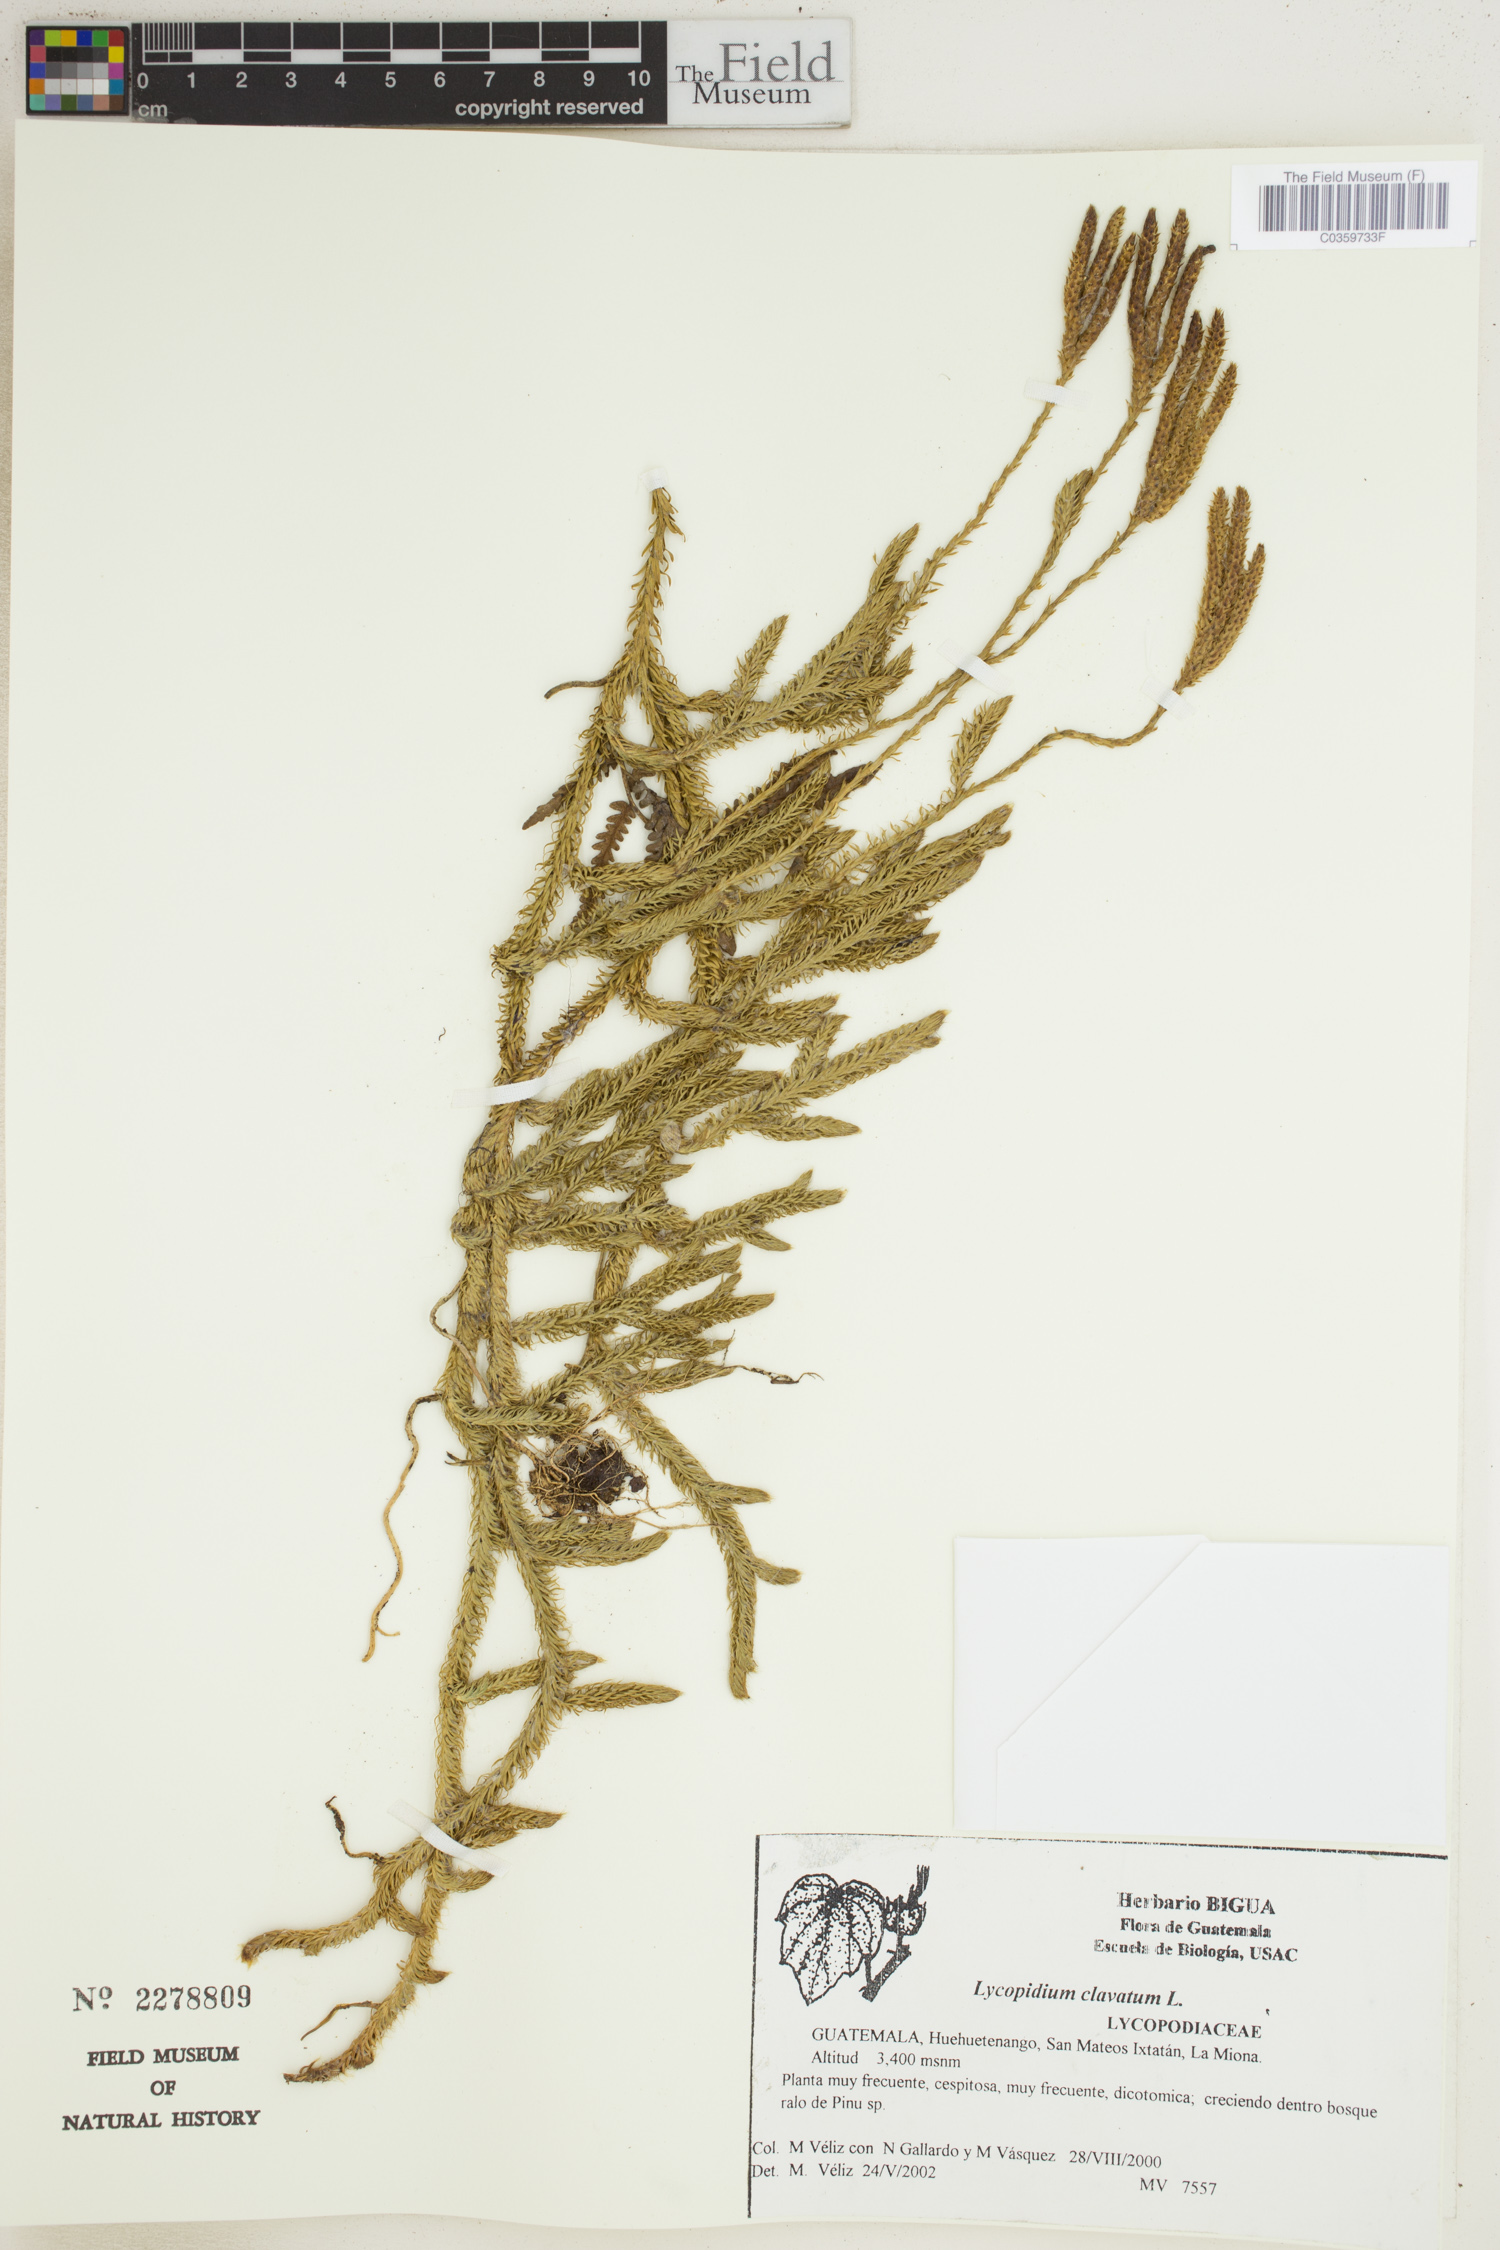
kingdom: Plantae
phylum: Tracheophyta
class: Lycopodiopsida
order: Lycopodiales
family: Lycopodiaceae
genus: Lycopodium
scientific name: Lycopodium clavatum
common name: Stag's-horn clubmoss
